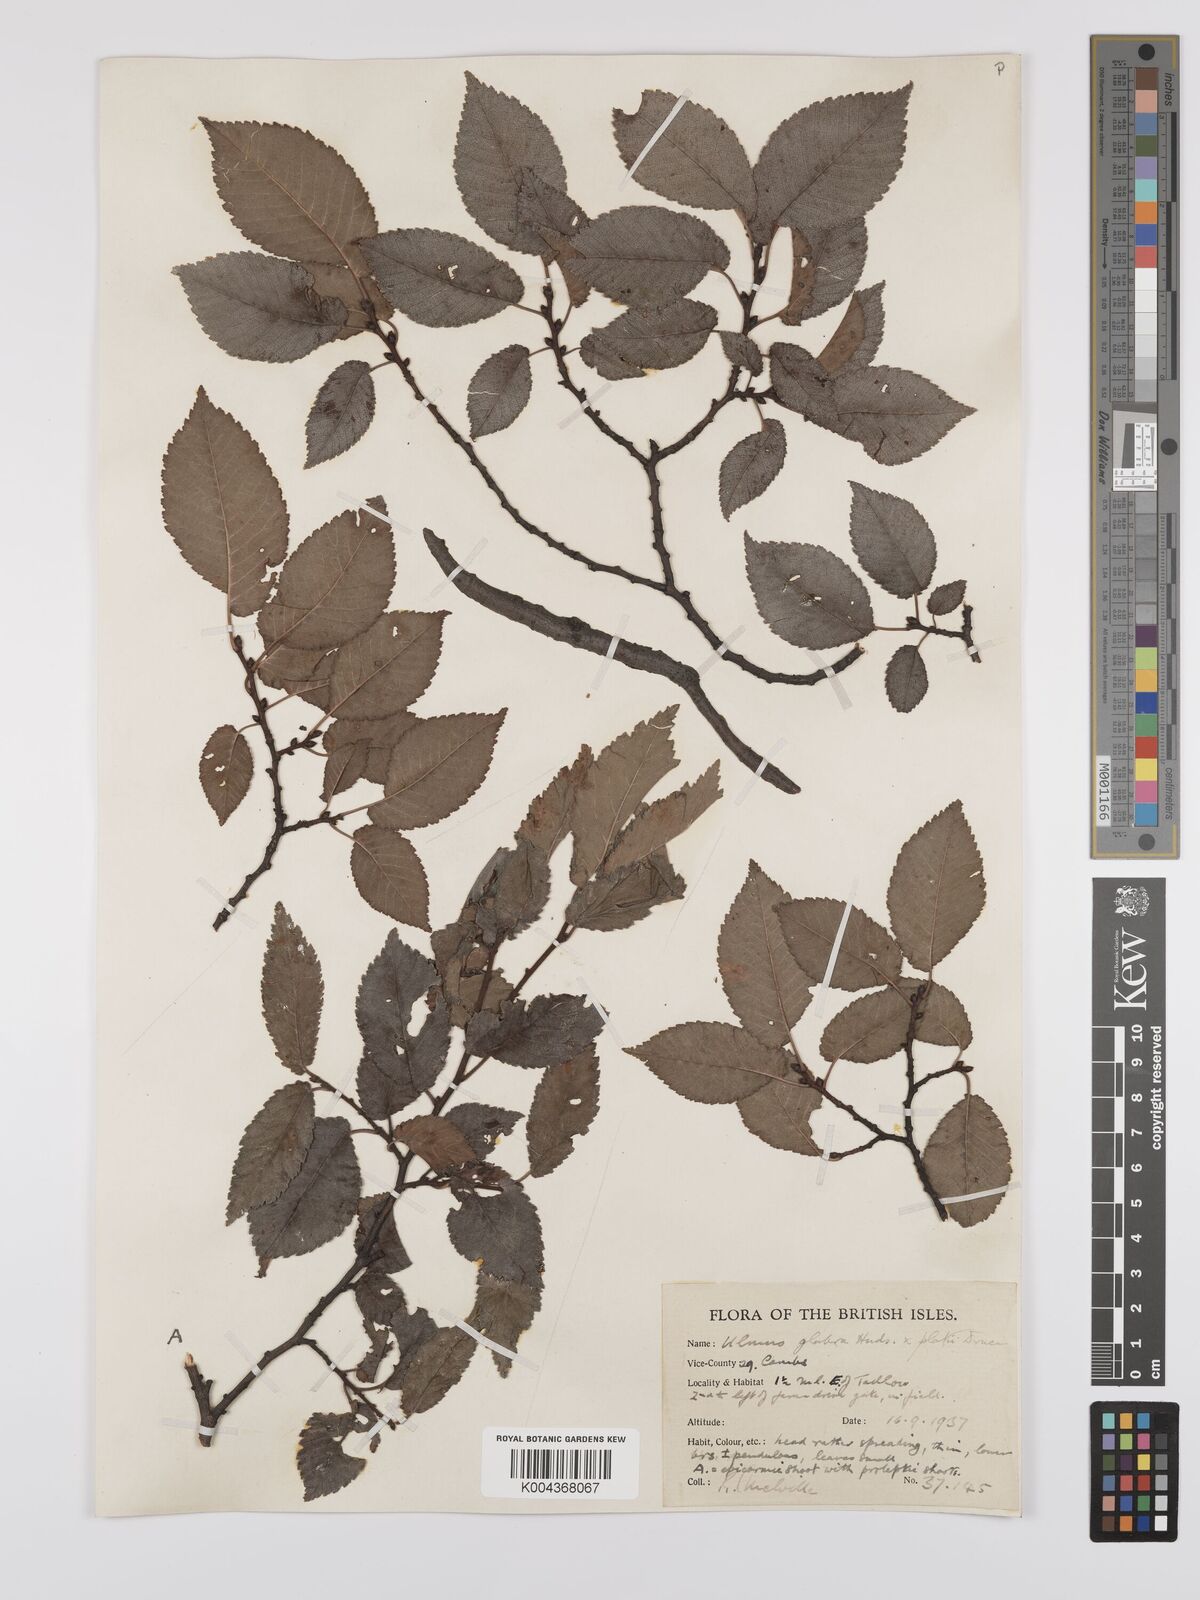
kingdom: Plantae
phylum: Tracheophyta
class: Magnoliopsida
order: Rosales
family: Ulmaceae
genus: Ulmus
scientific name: Ulmus
